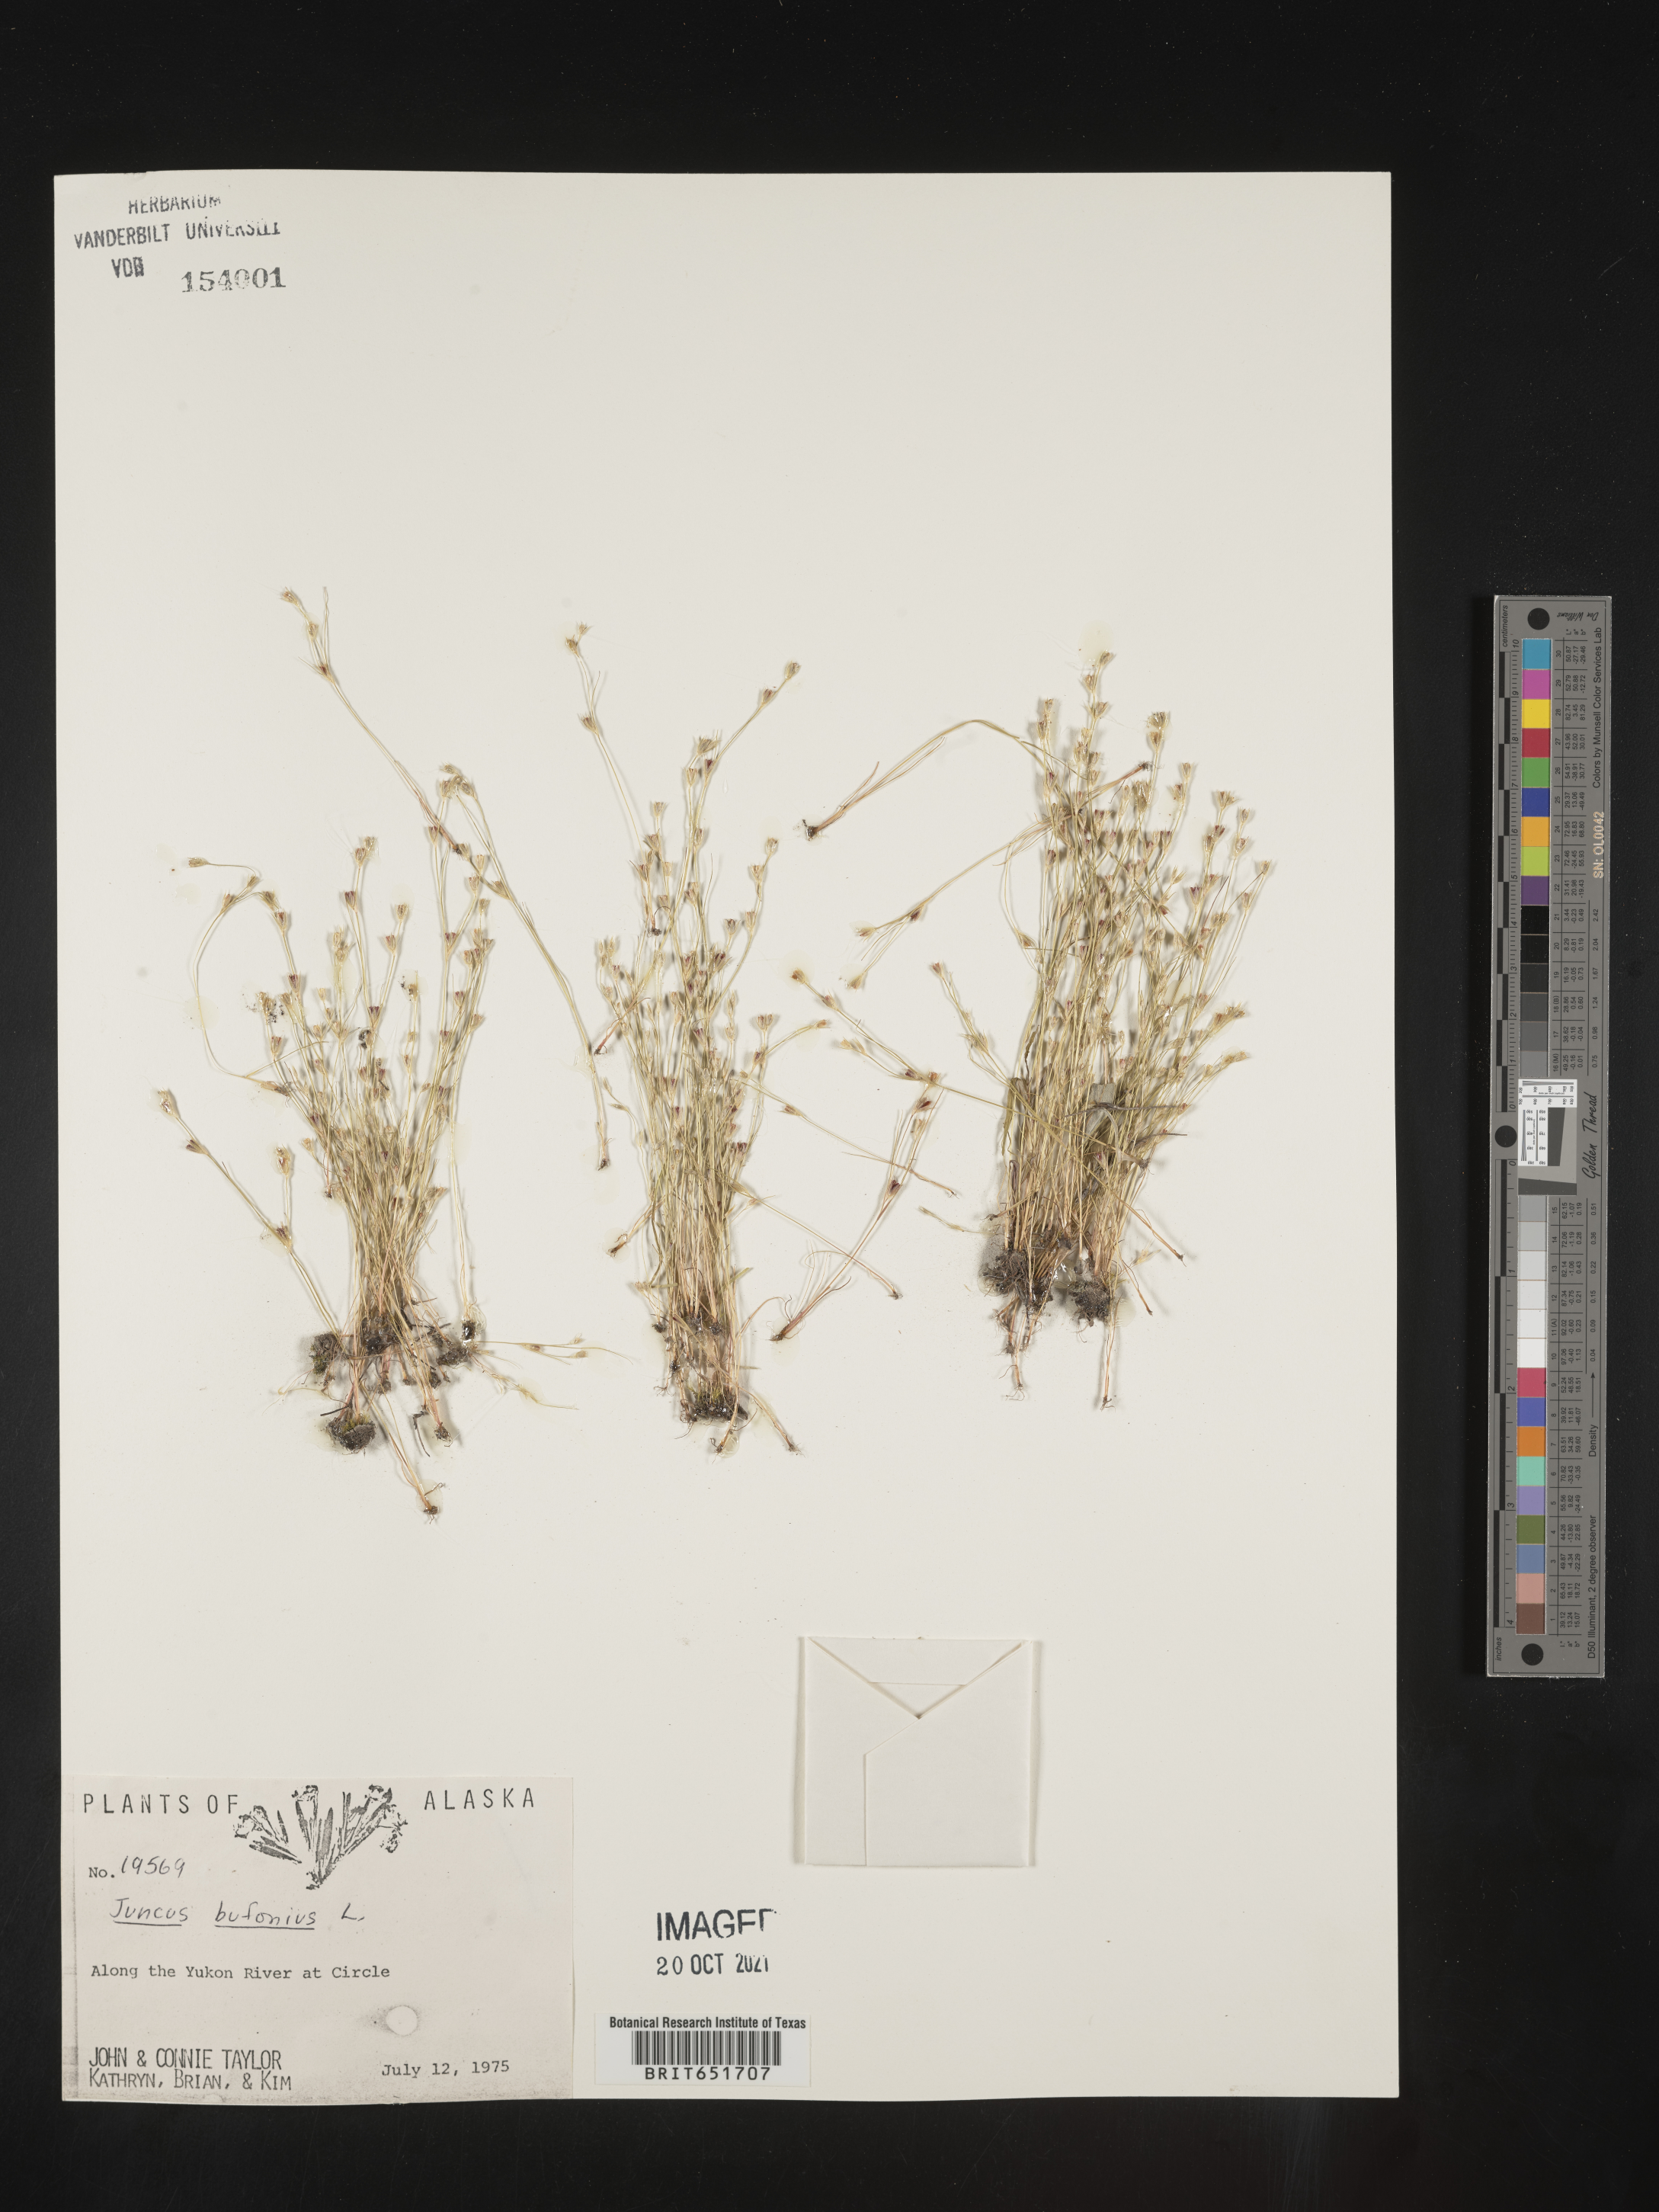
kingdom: Plantae
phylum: Tracheophyta
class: Liliopsida
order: Poales
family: Juncaceae
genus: Juncus
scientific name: Juncus bufonius
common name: Toad rush
